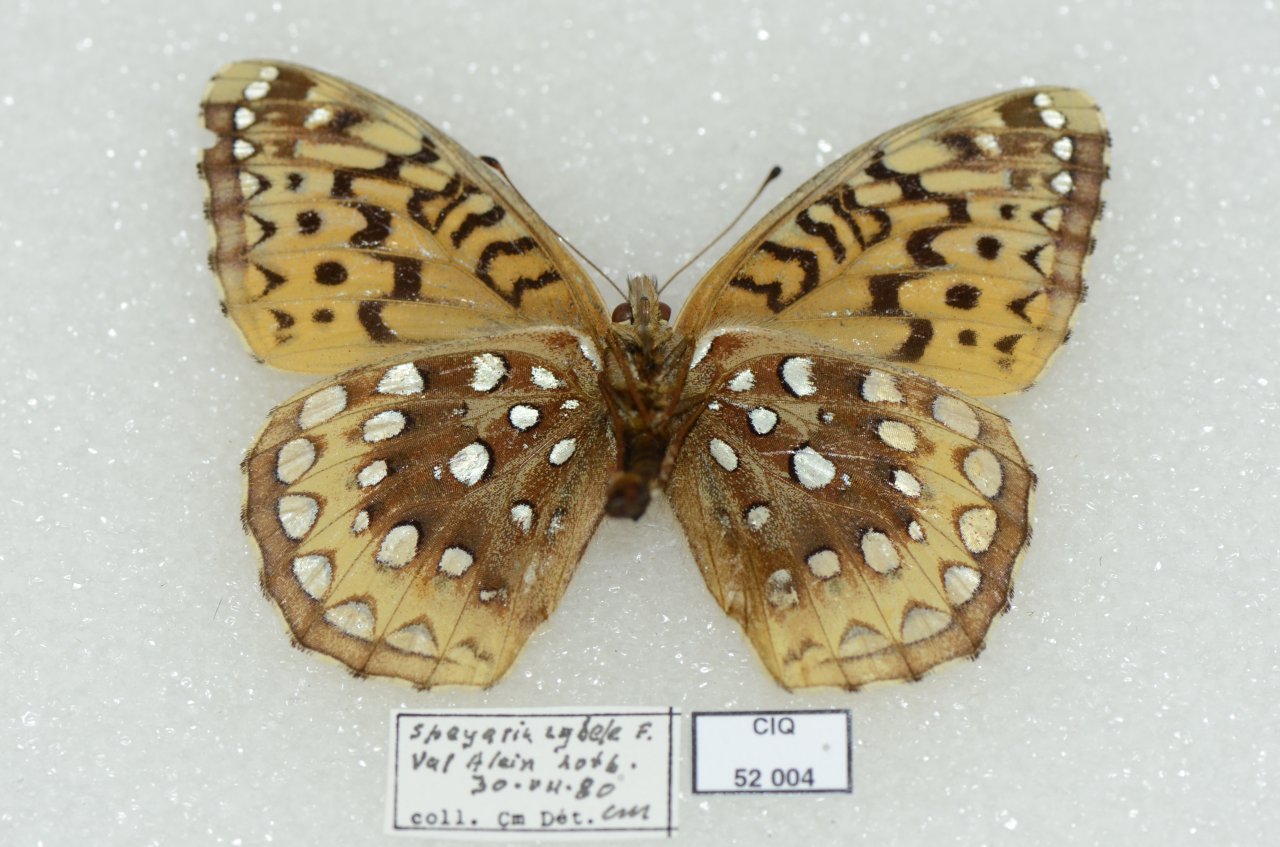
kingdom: Animalia
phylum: Arthropoda
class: Insecta
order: Lepidoptera
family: Nymphalidae
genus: Speyeria
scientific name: Speyeria cybele
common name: Great Spangled Fritillary
